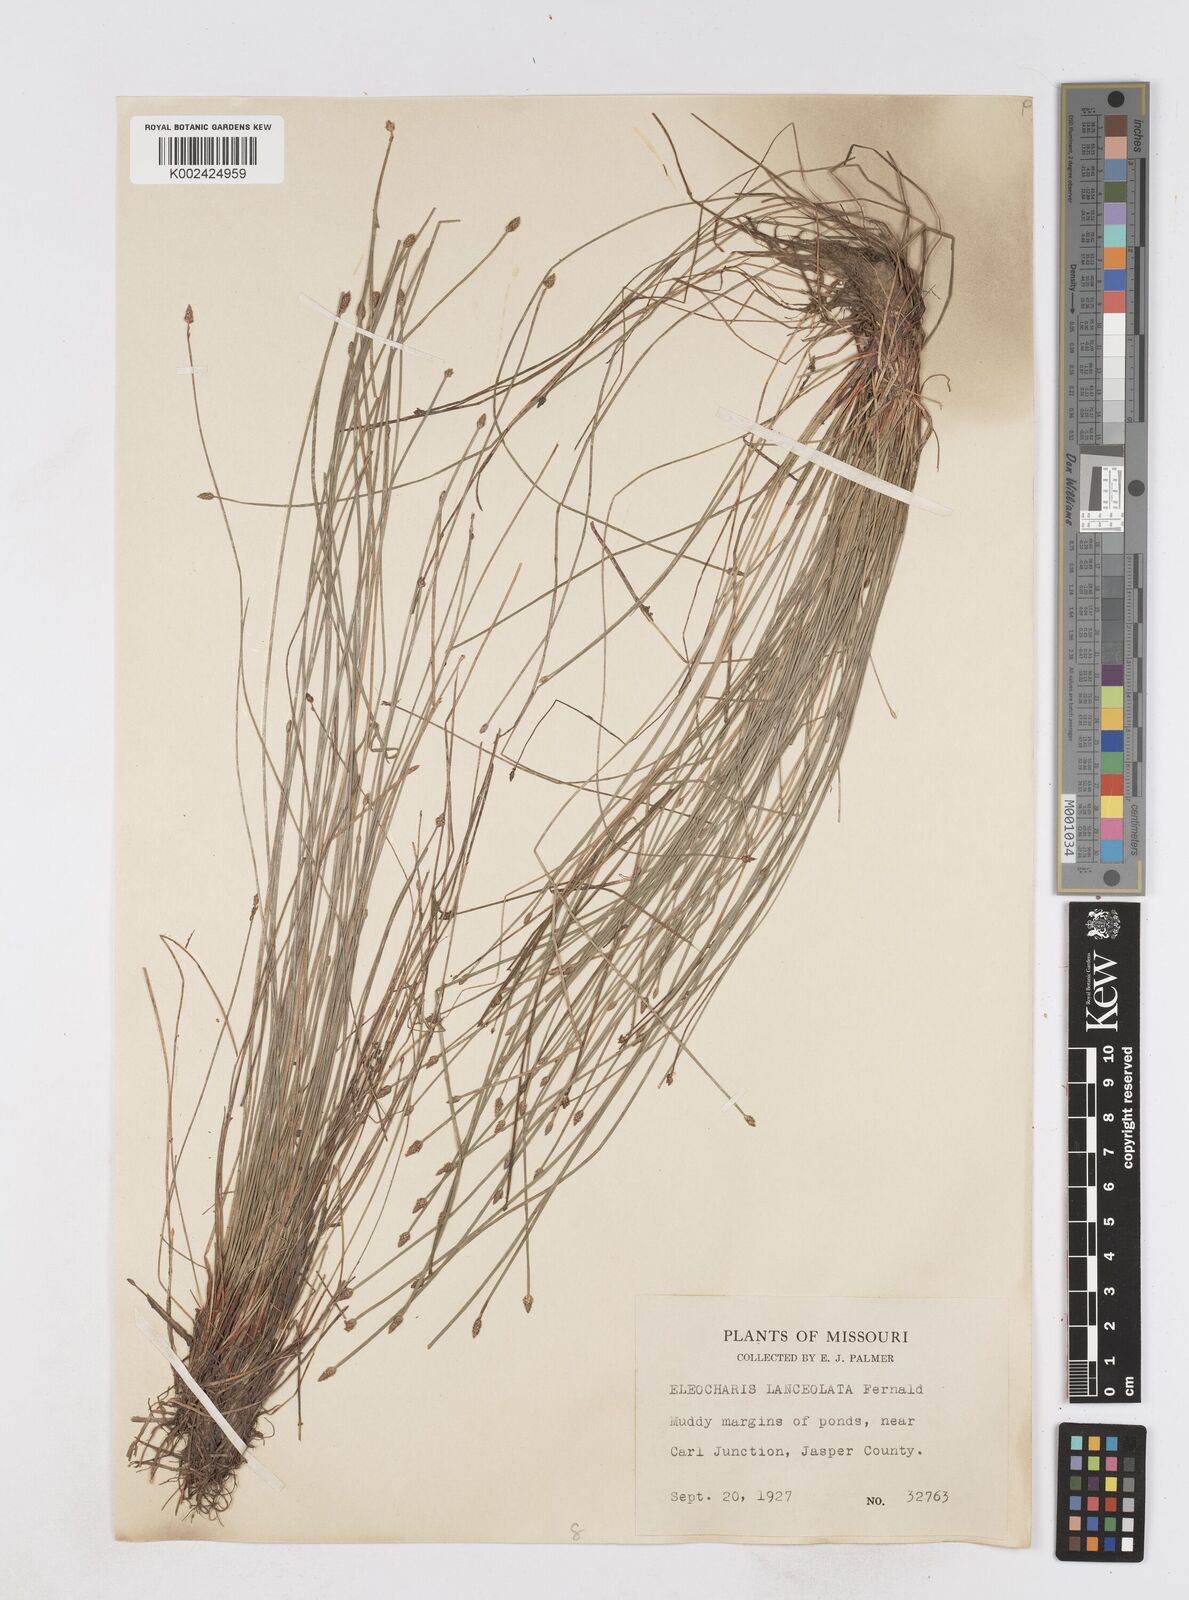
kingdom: Plantae
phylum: Tracheophyta
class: Liliopsida
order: Poales
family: Cyperaceae
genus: Eleocharis
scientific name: Eleocharis lanceolata
